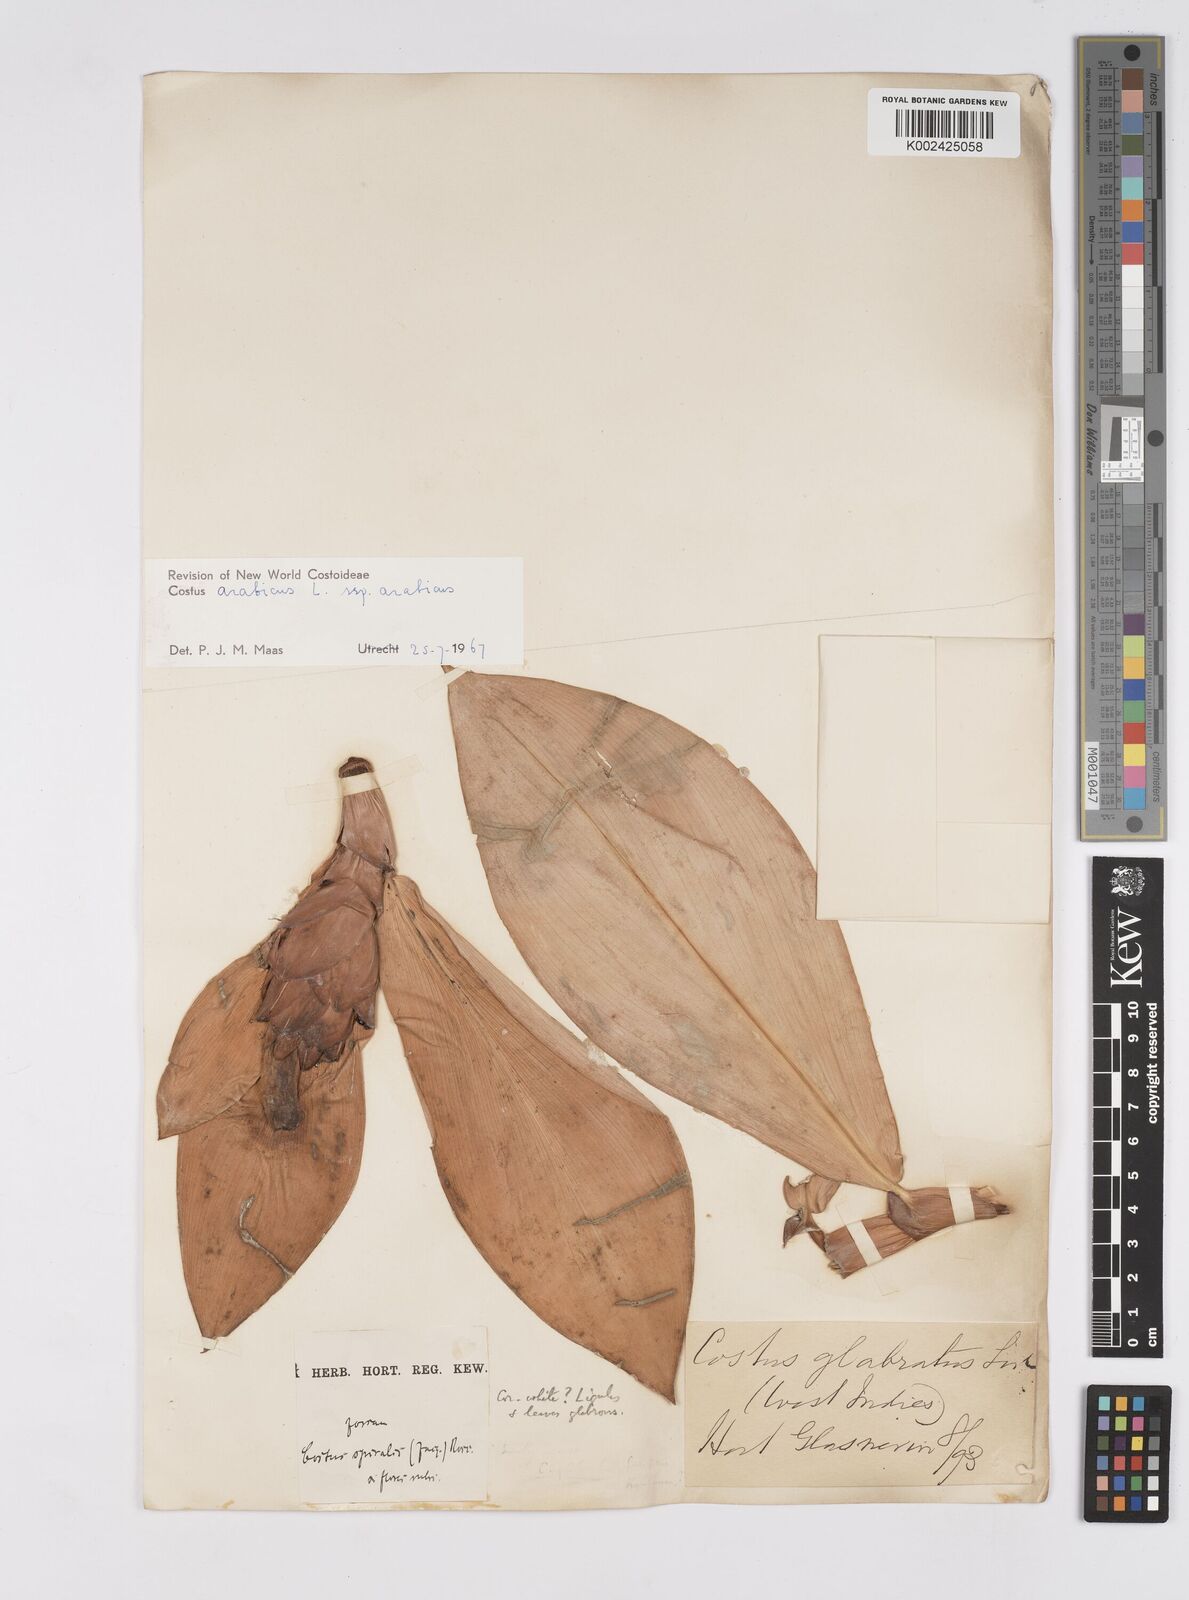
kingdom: Plantae
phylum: Tracheophyta
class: Liliopsida
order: Zingiberales
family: Costaceae
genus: Costus
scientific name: Costus arabicus
